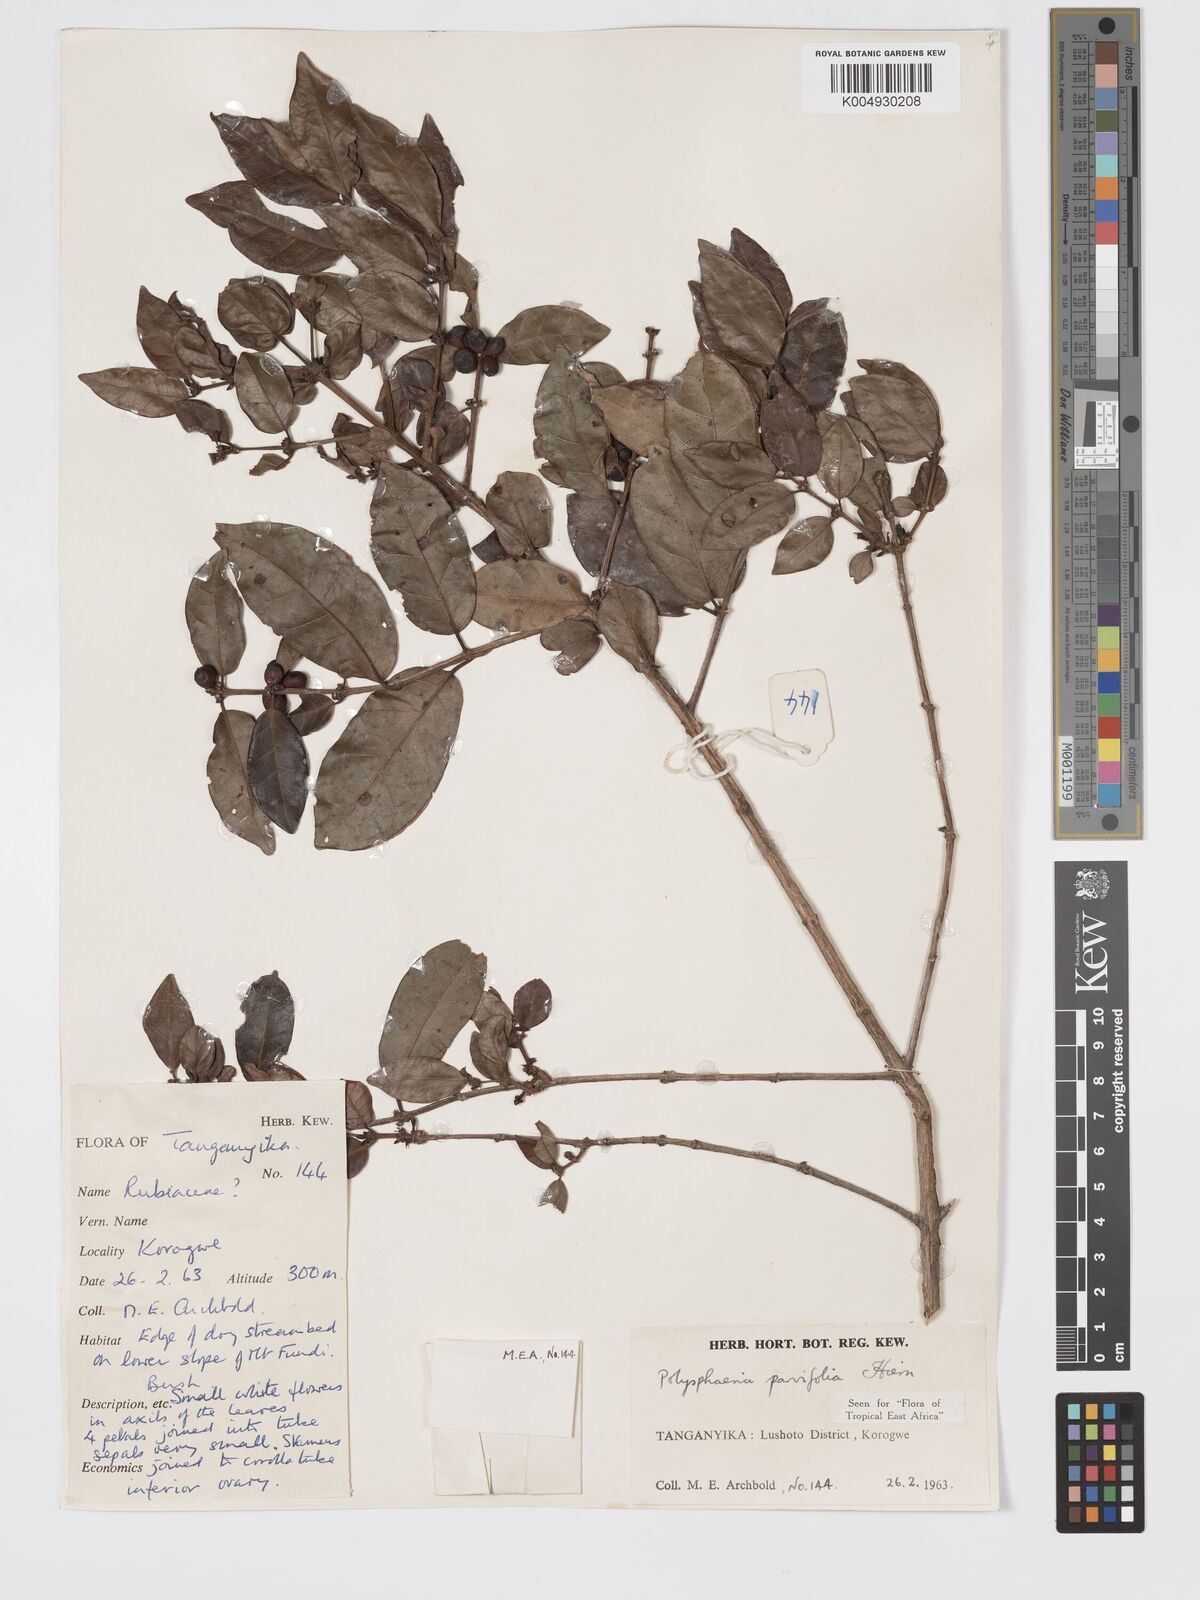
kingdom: Plantae
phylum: Tracheophyta
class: Magnoliopsida
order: Gentianales
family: Rubiaceae
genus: Polysphaeria
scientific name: Polysphaeria parvifolia
